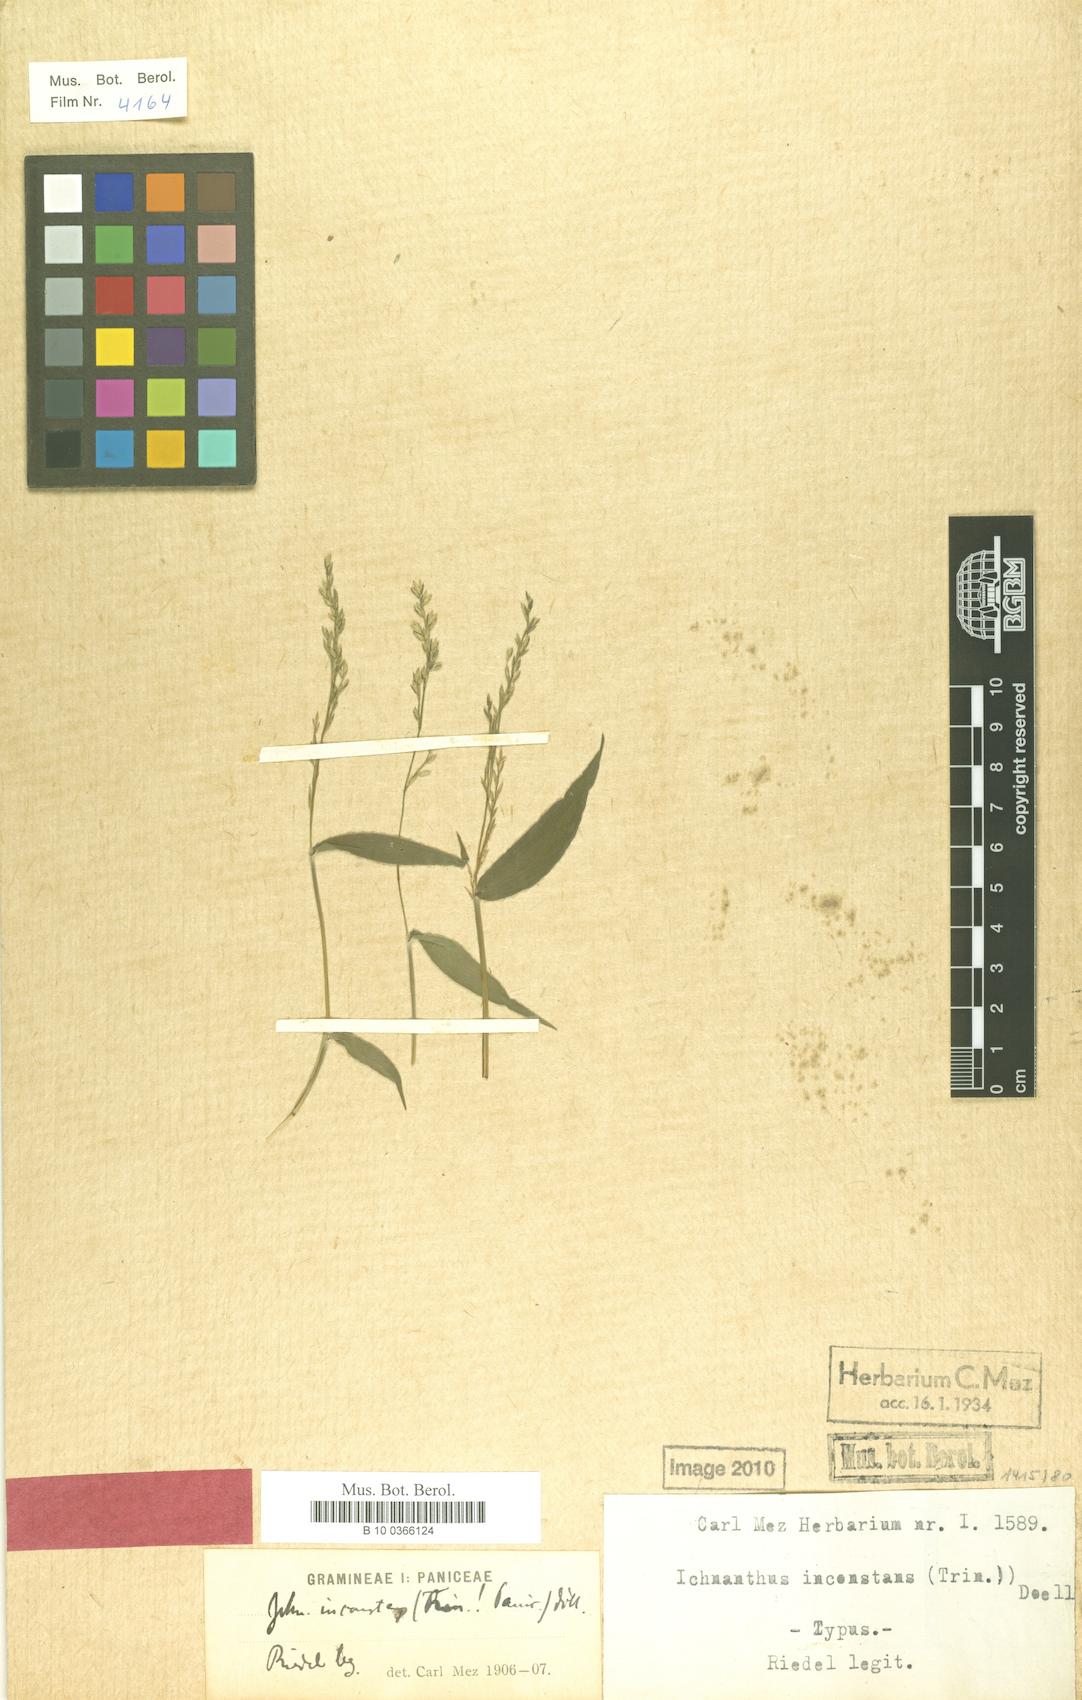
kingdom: Plantae
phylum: Tracheophyta
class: Liliopsida
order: Poales
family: Poaceae
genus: Ichnanthus
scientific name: Ichnanthus inconstans
